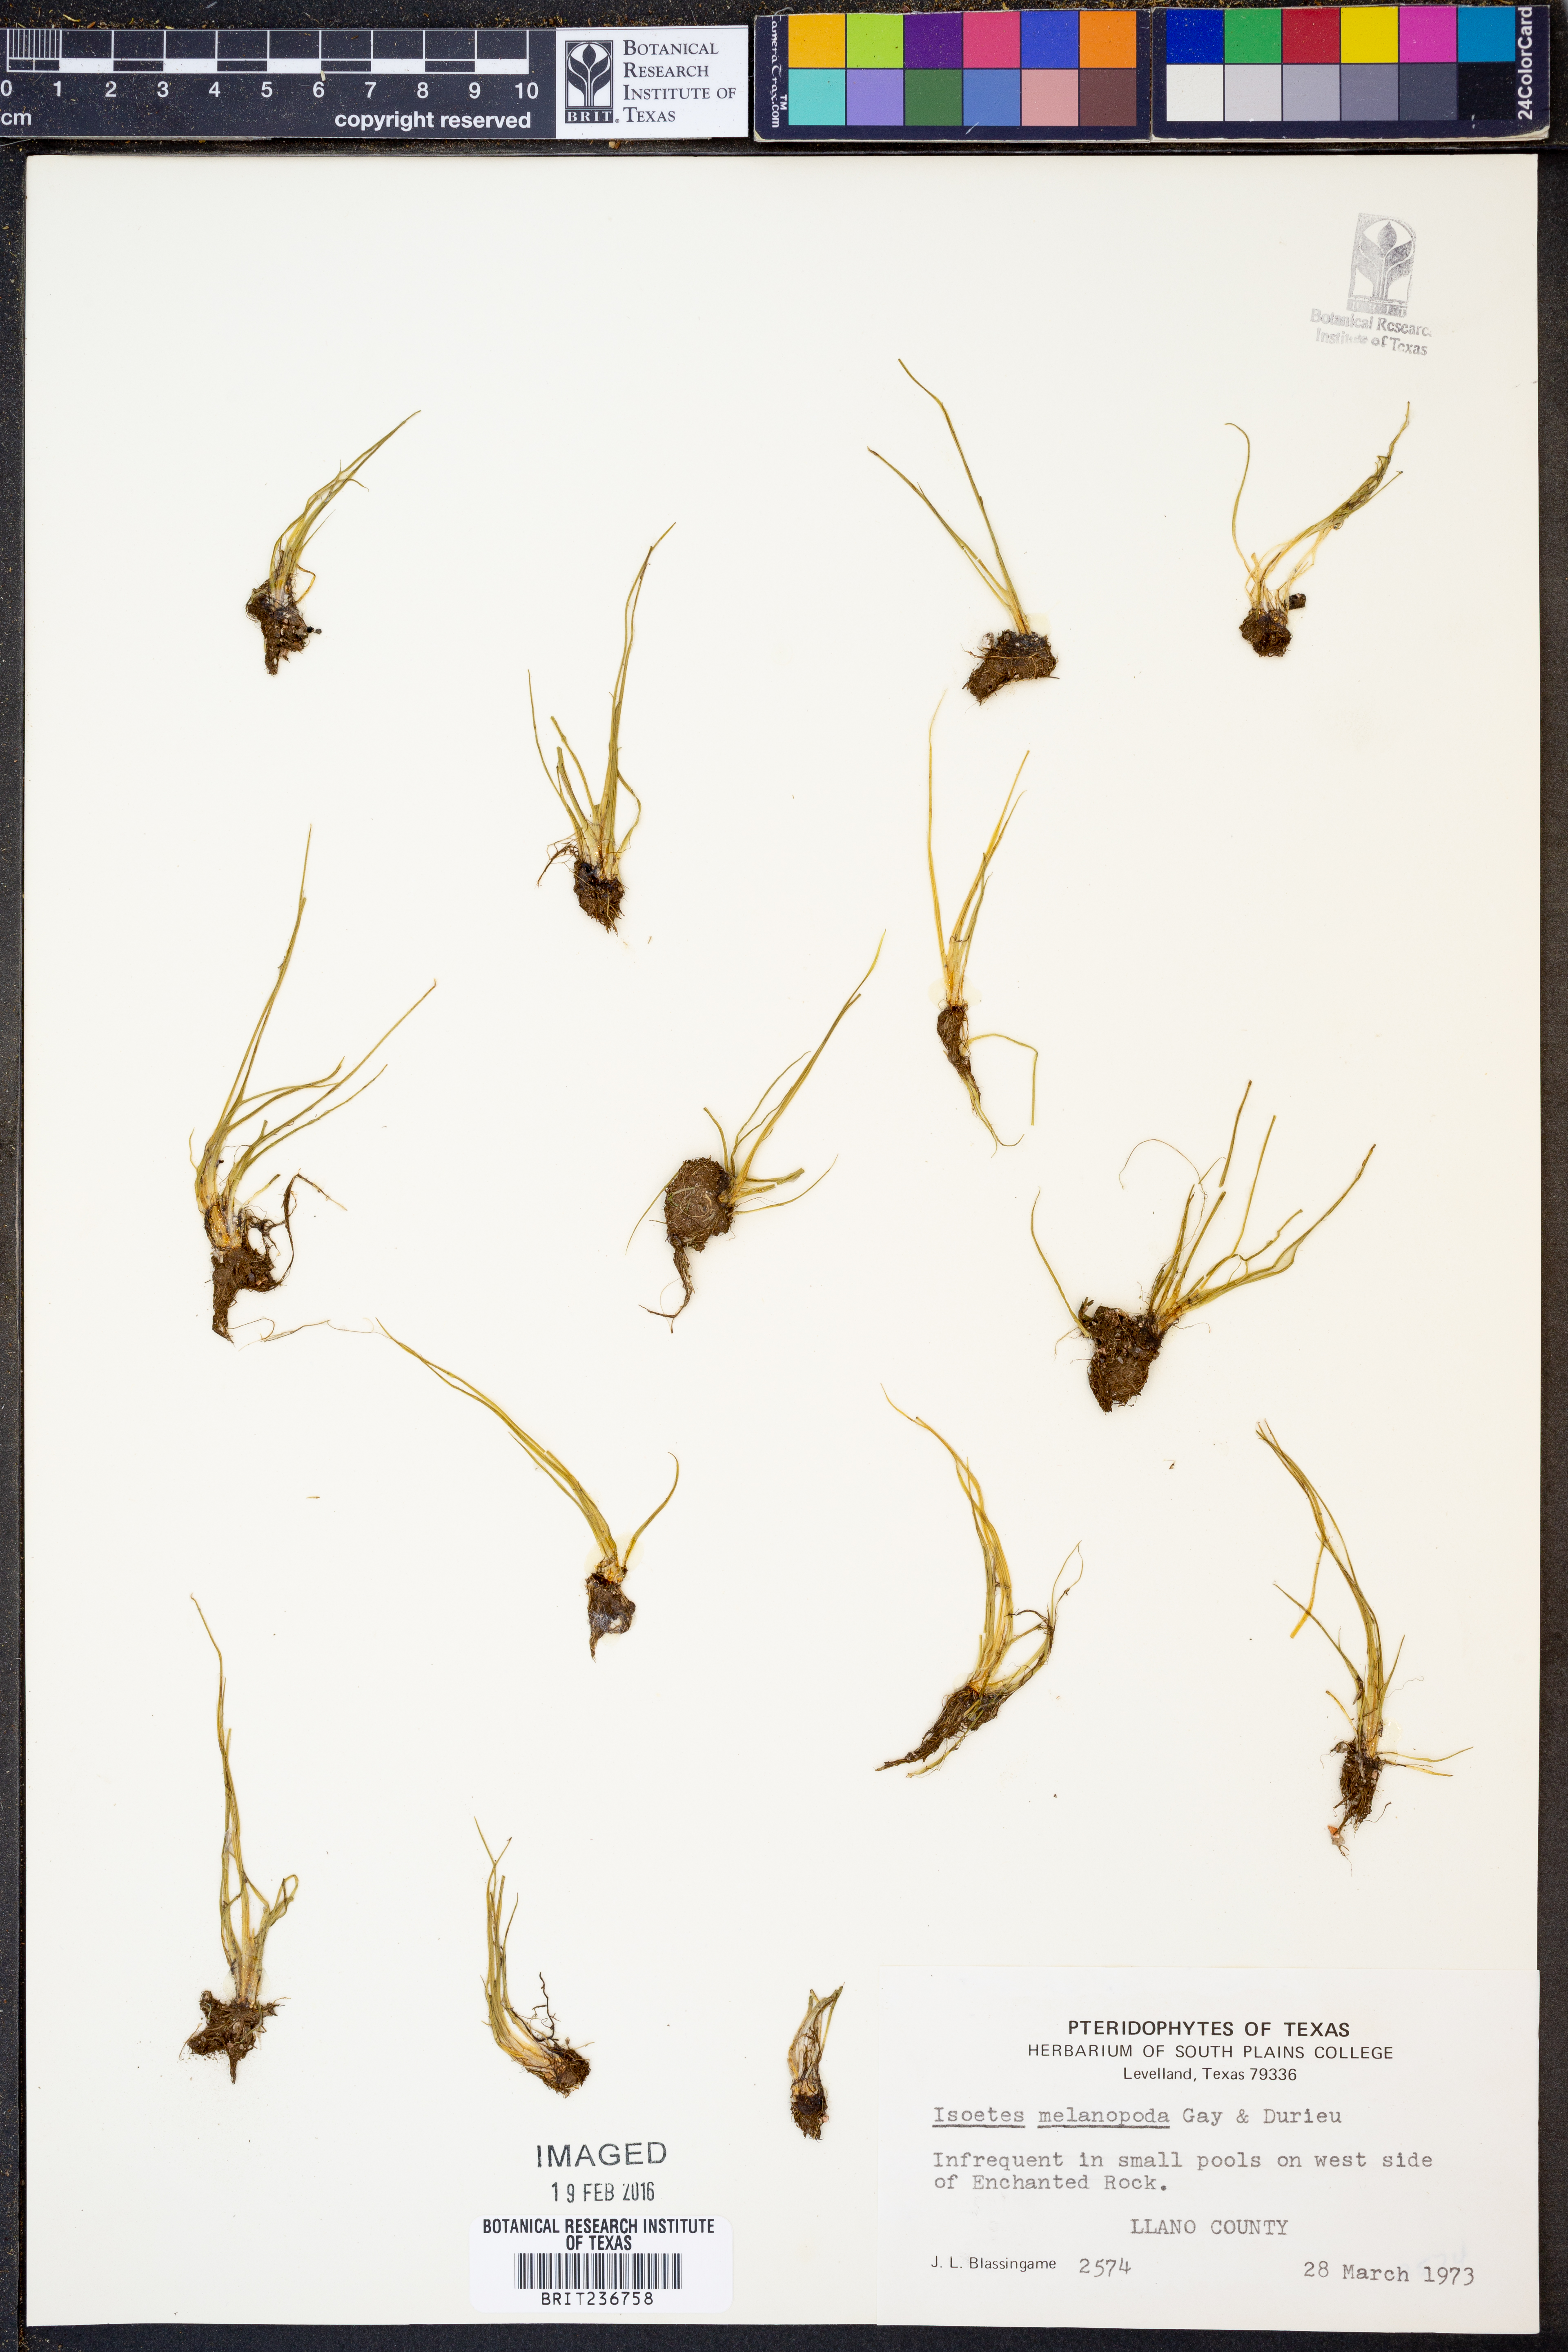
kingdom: Plantae
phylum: Tracheophyta
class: Lycopodiopsida
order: Isoetales
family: Isoetaceae
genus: Isoetes
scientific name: Isoetes melanopoda
